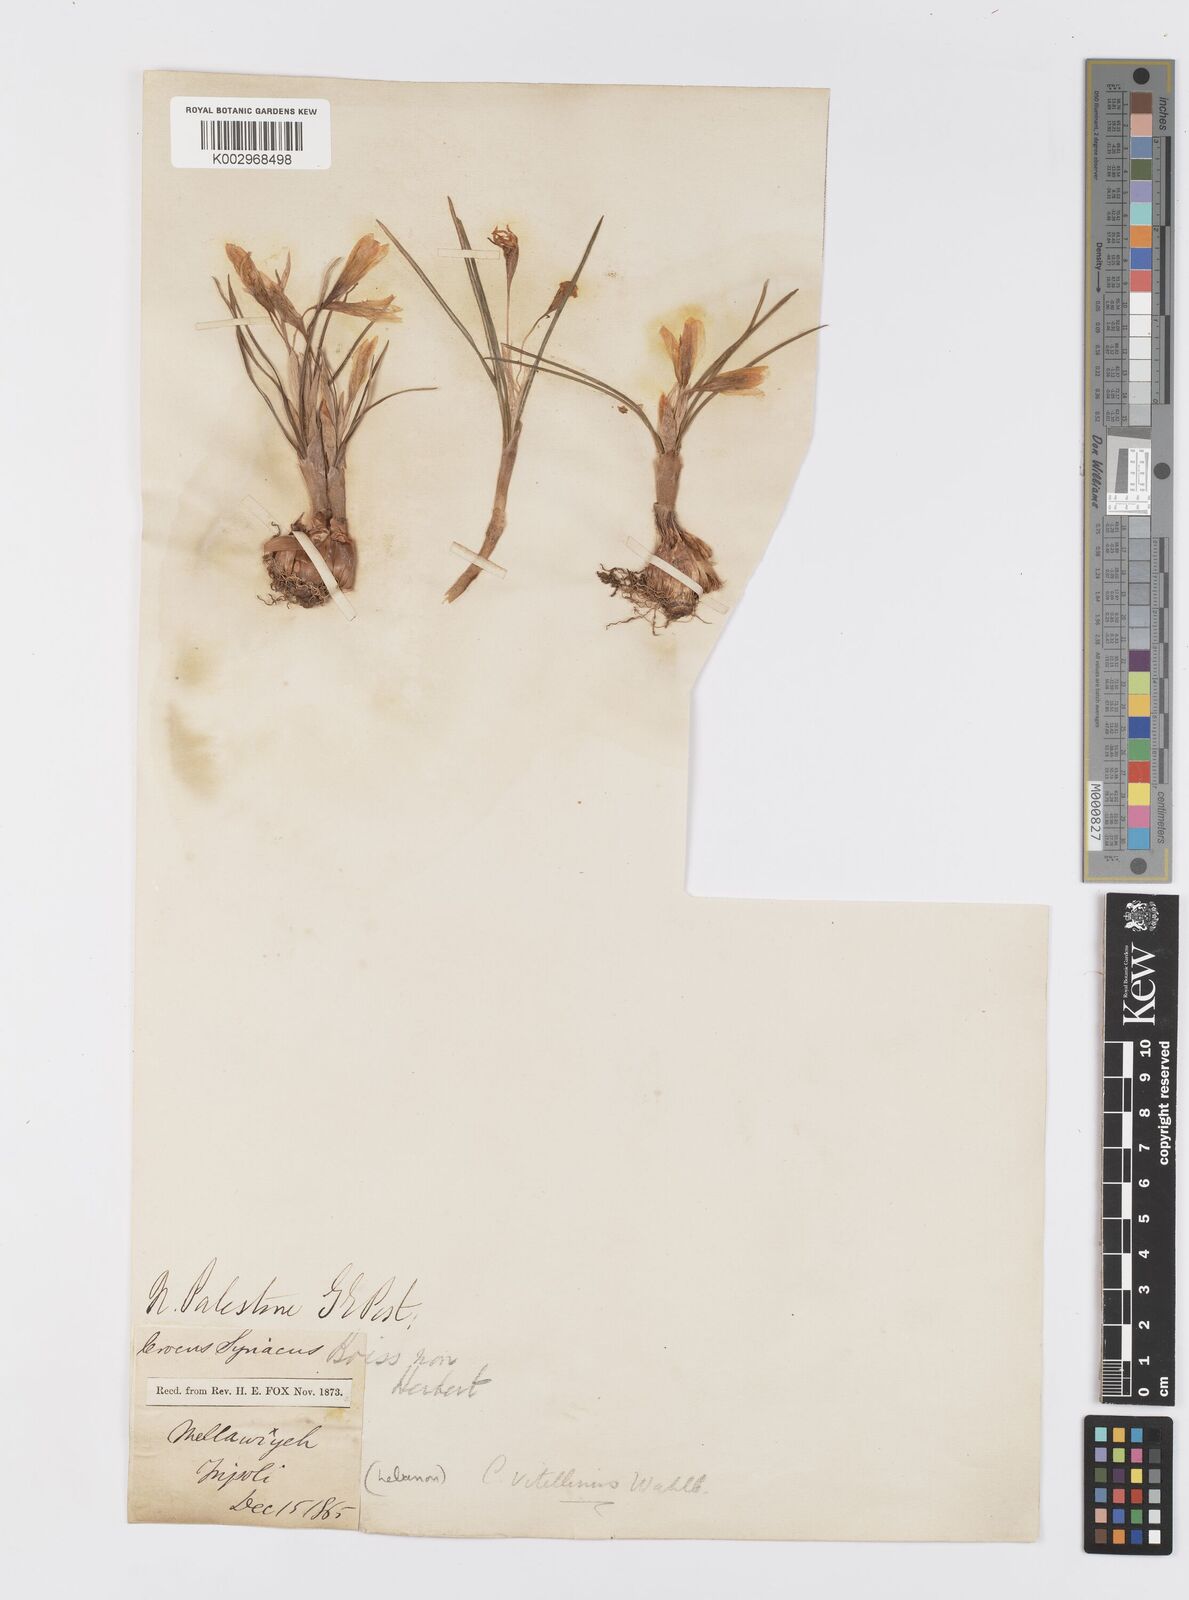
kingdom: Plantae
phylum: Tracheophyta
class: Liliopsida
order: Asparagales
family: Iridaceae
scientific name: Iridaceae
